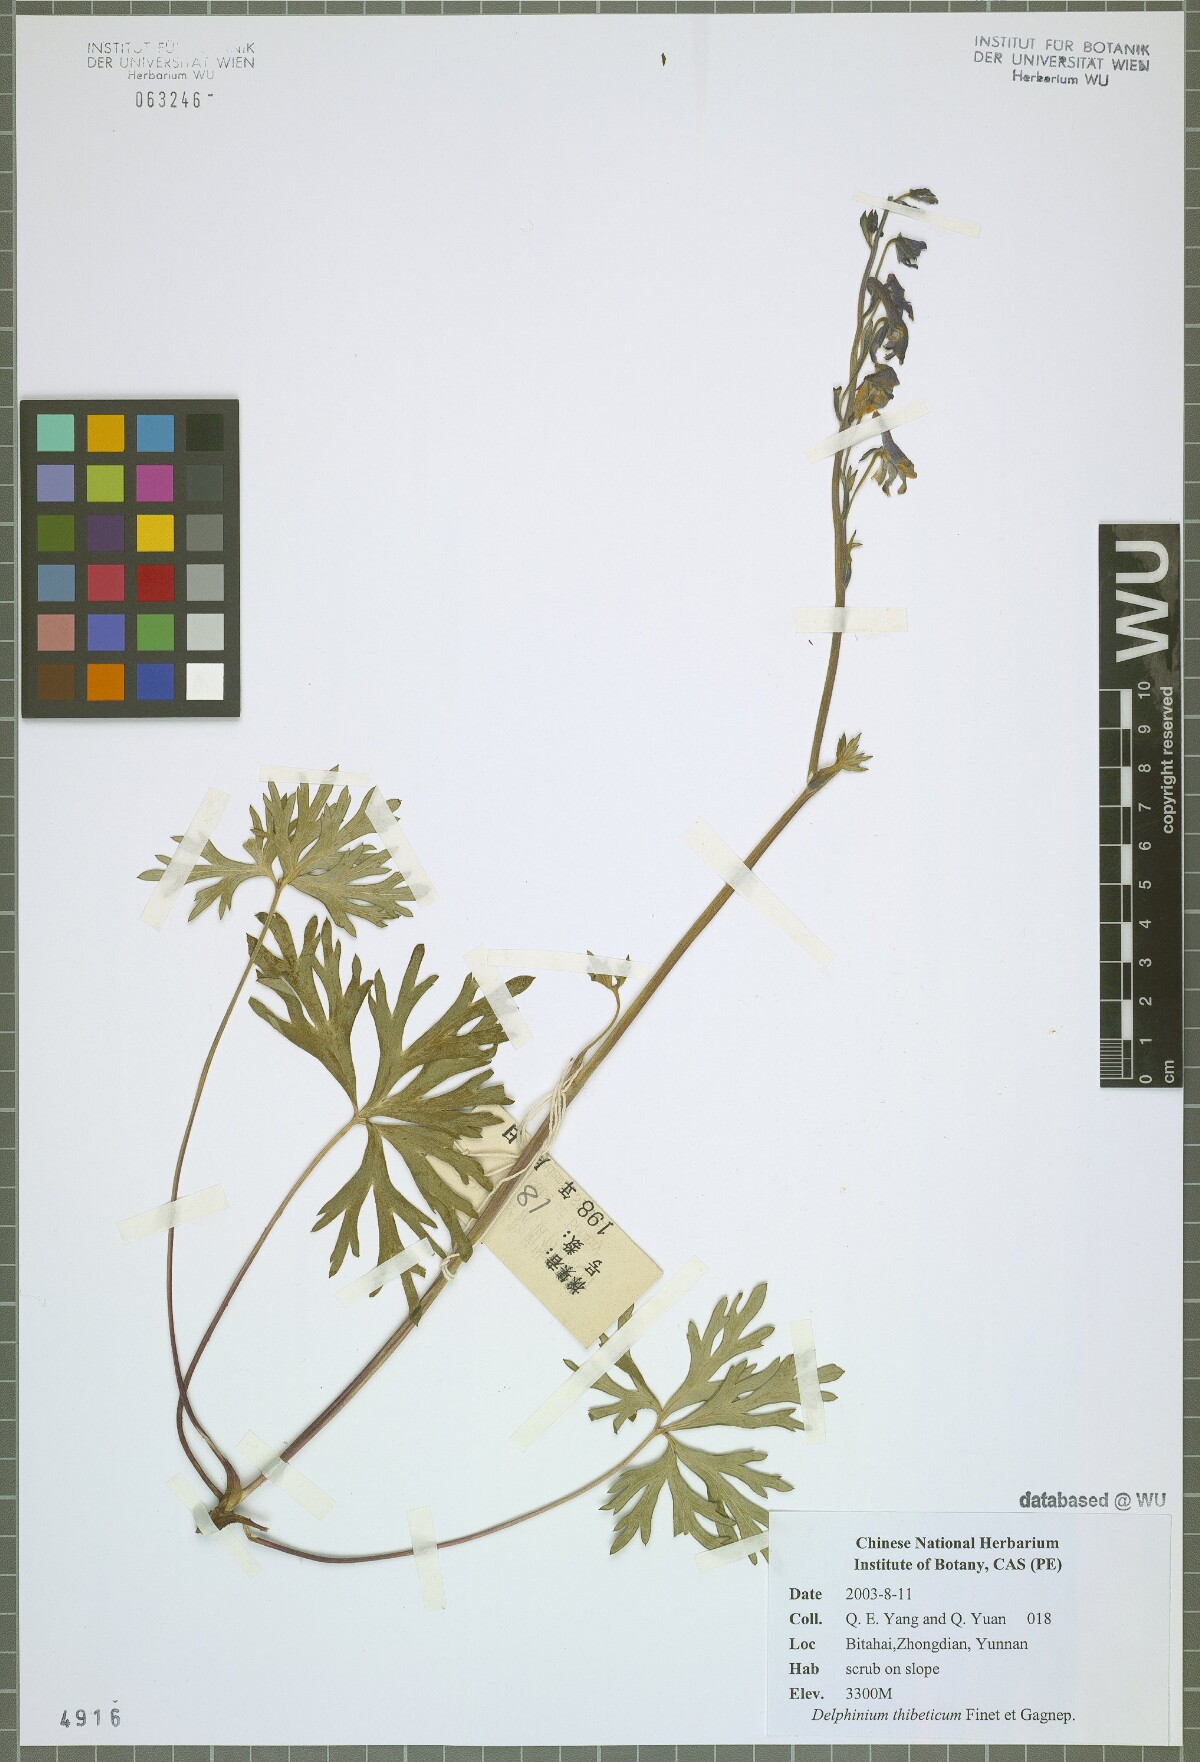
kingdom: Plantae
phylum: Tracheophyta
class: Magnoliopsida
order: Ranunculales
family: Ranunculaceae
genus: Delphinium
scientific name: Delphinium thibeticum
